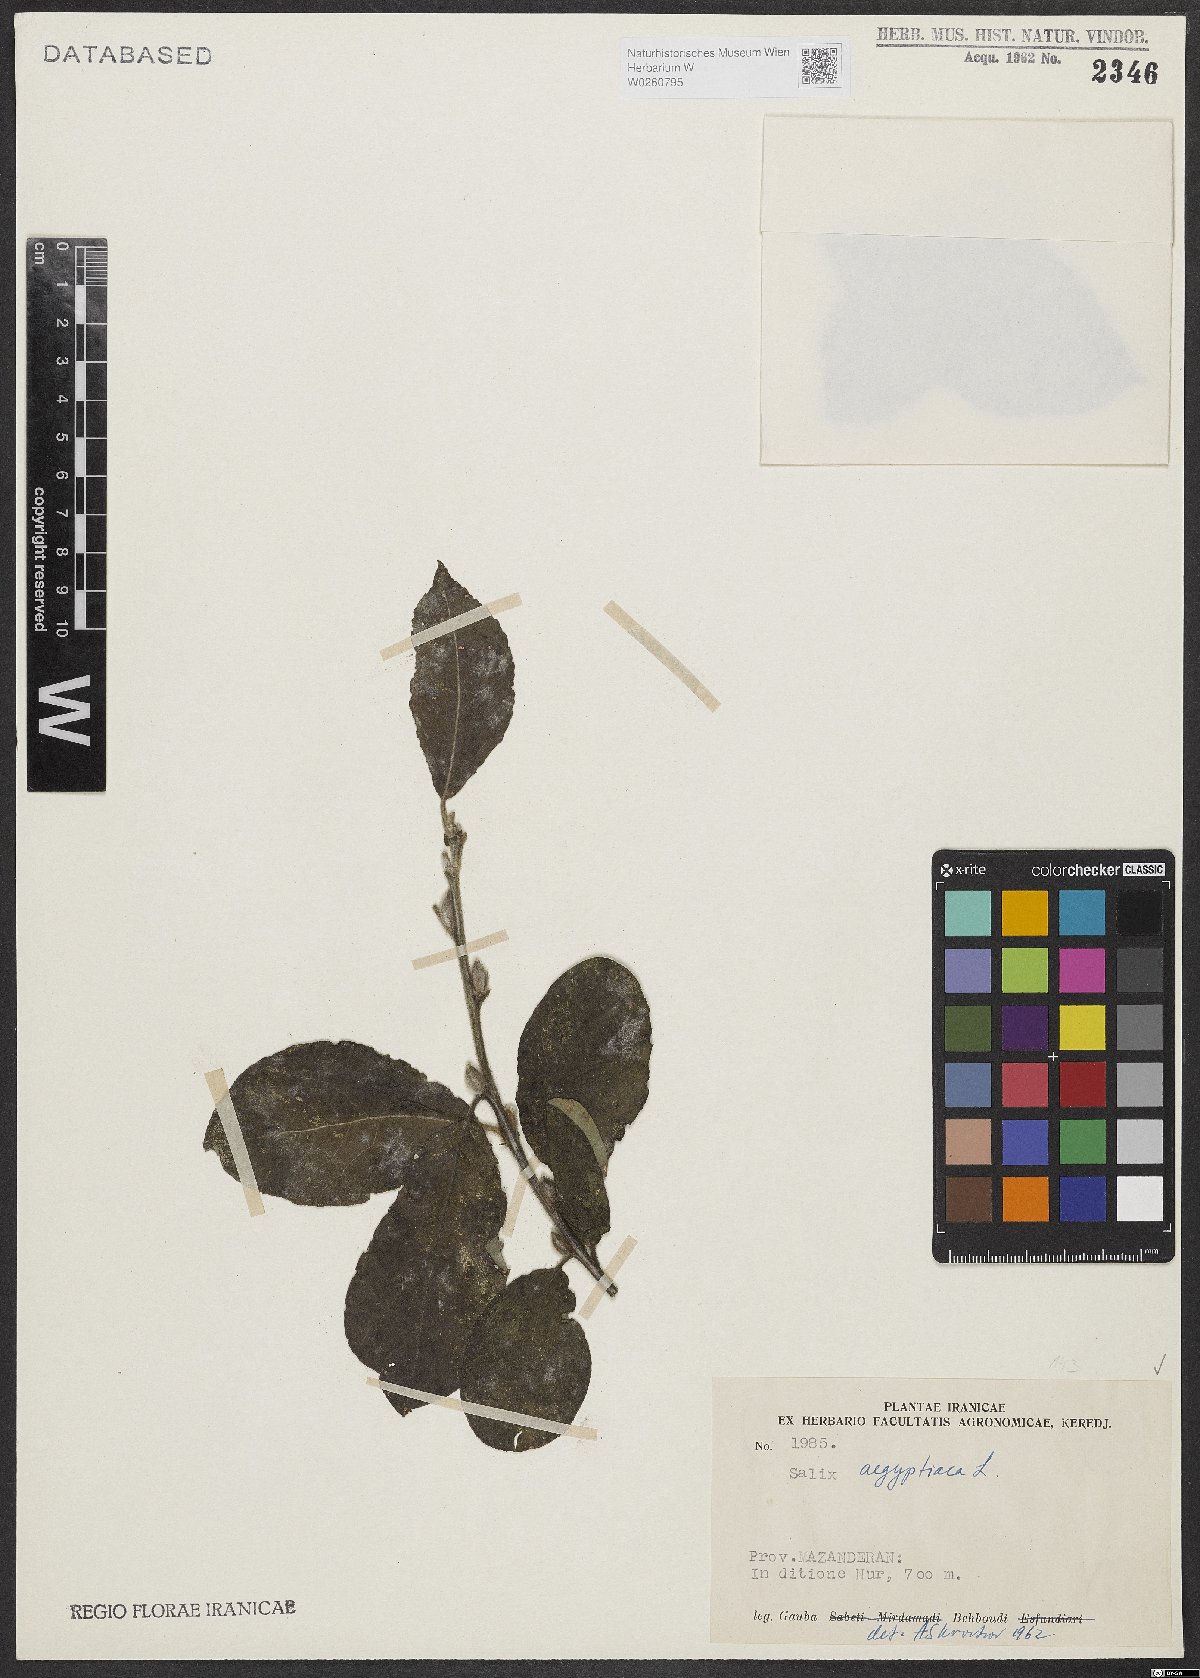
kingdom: Plantae
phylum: Tracheophyta
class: Magnoliopsida
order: Malpighiales
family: Salicaceae
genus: Salix
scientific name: Salix aegyptiaca
